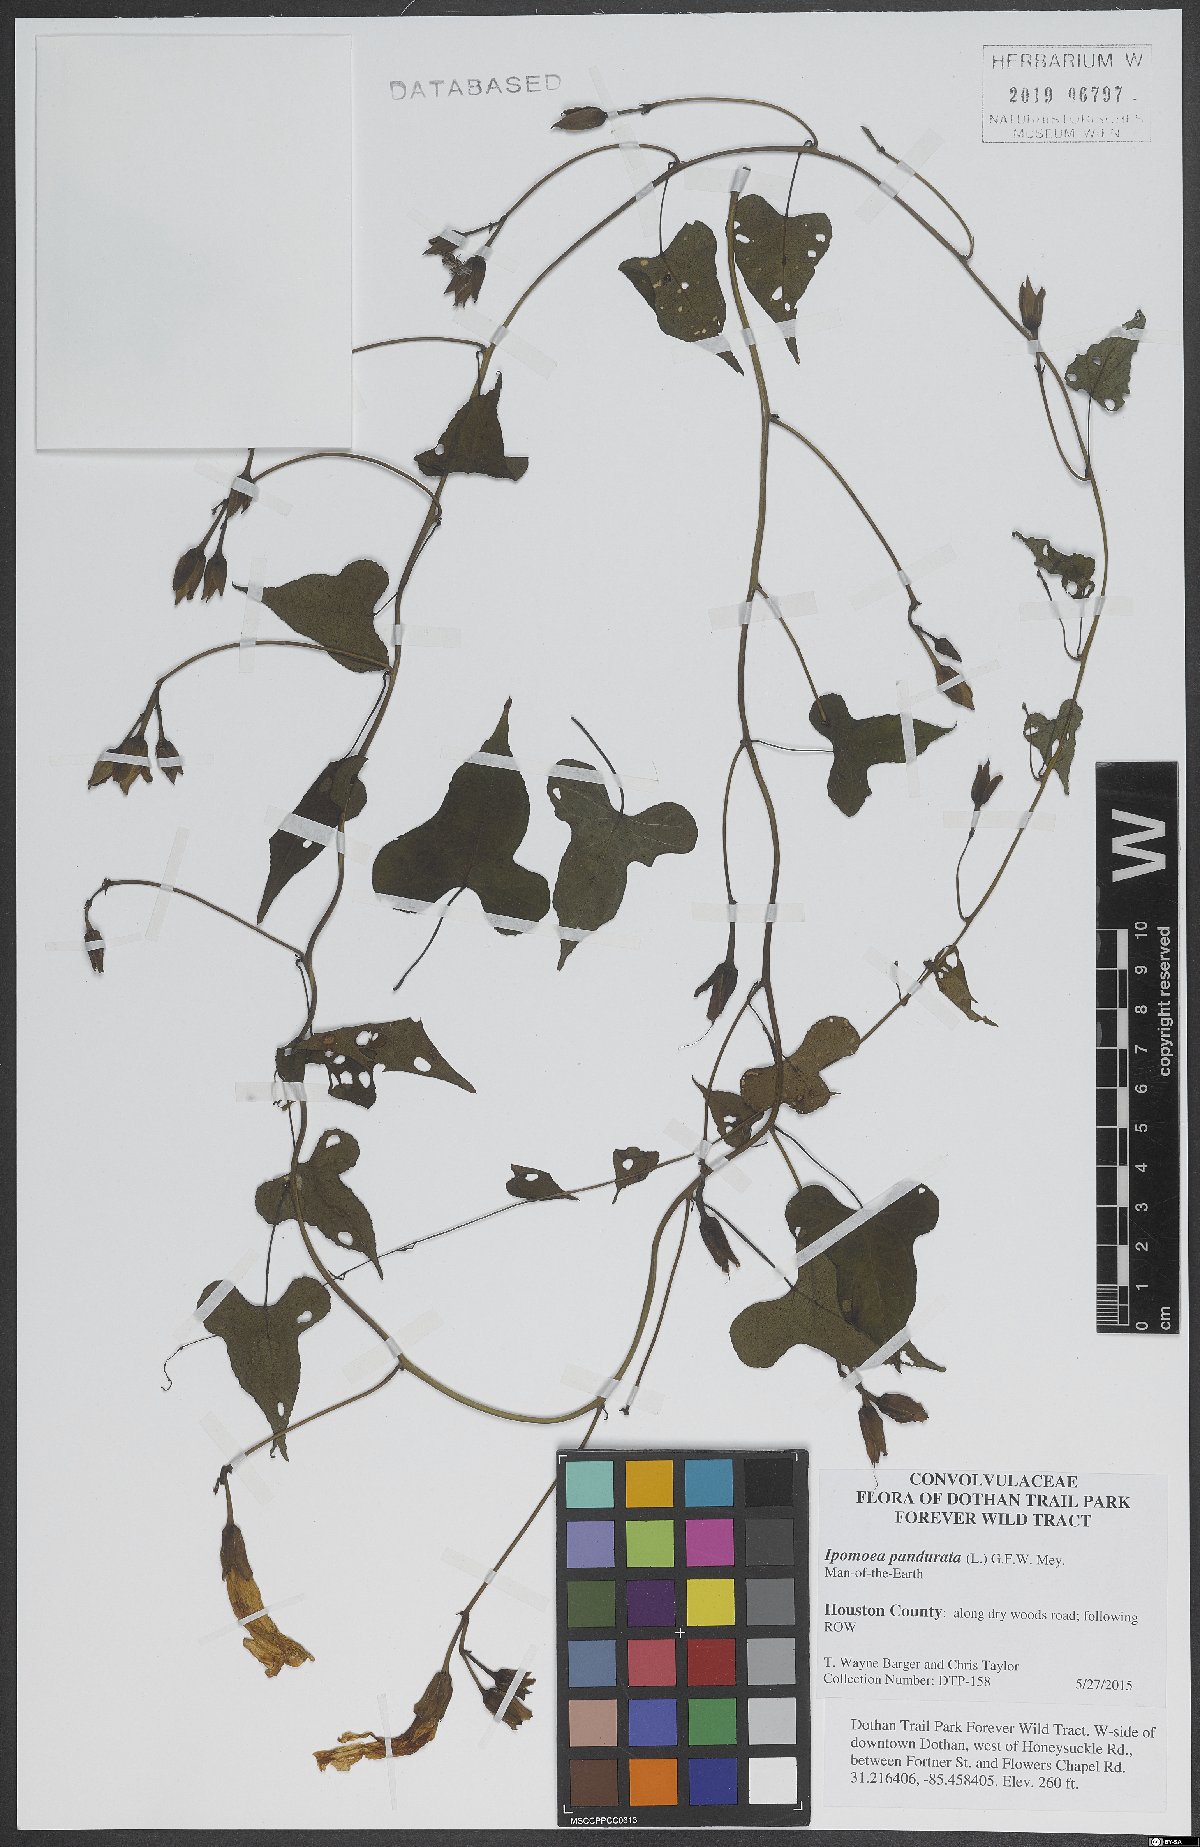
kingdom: Plantae
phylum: Tracheophyta
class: Magnoliopsida
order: Solanales
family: Convolvulaceae
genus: Ipomoea
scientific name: Ipomoea pandurata
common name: Man-of-the-earth
